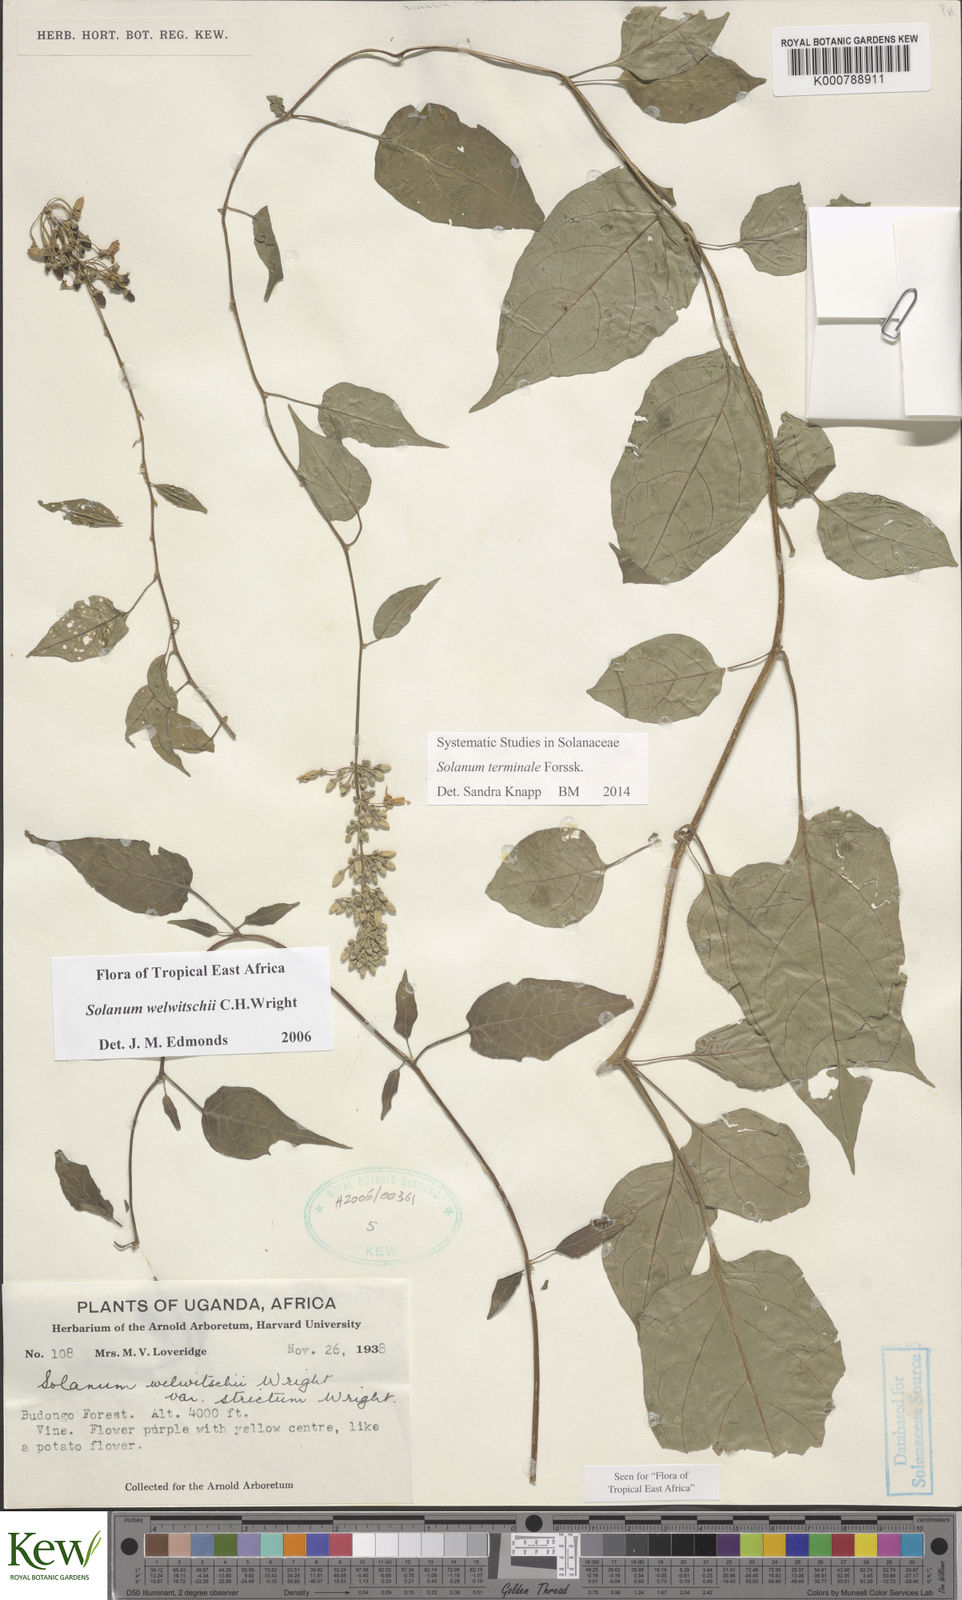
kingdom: Plantae
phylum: Tracheophyta
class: Magnoliopsida
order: Solanales
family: Solanaceae
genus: Solanum
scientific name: Solanum terminale
